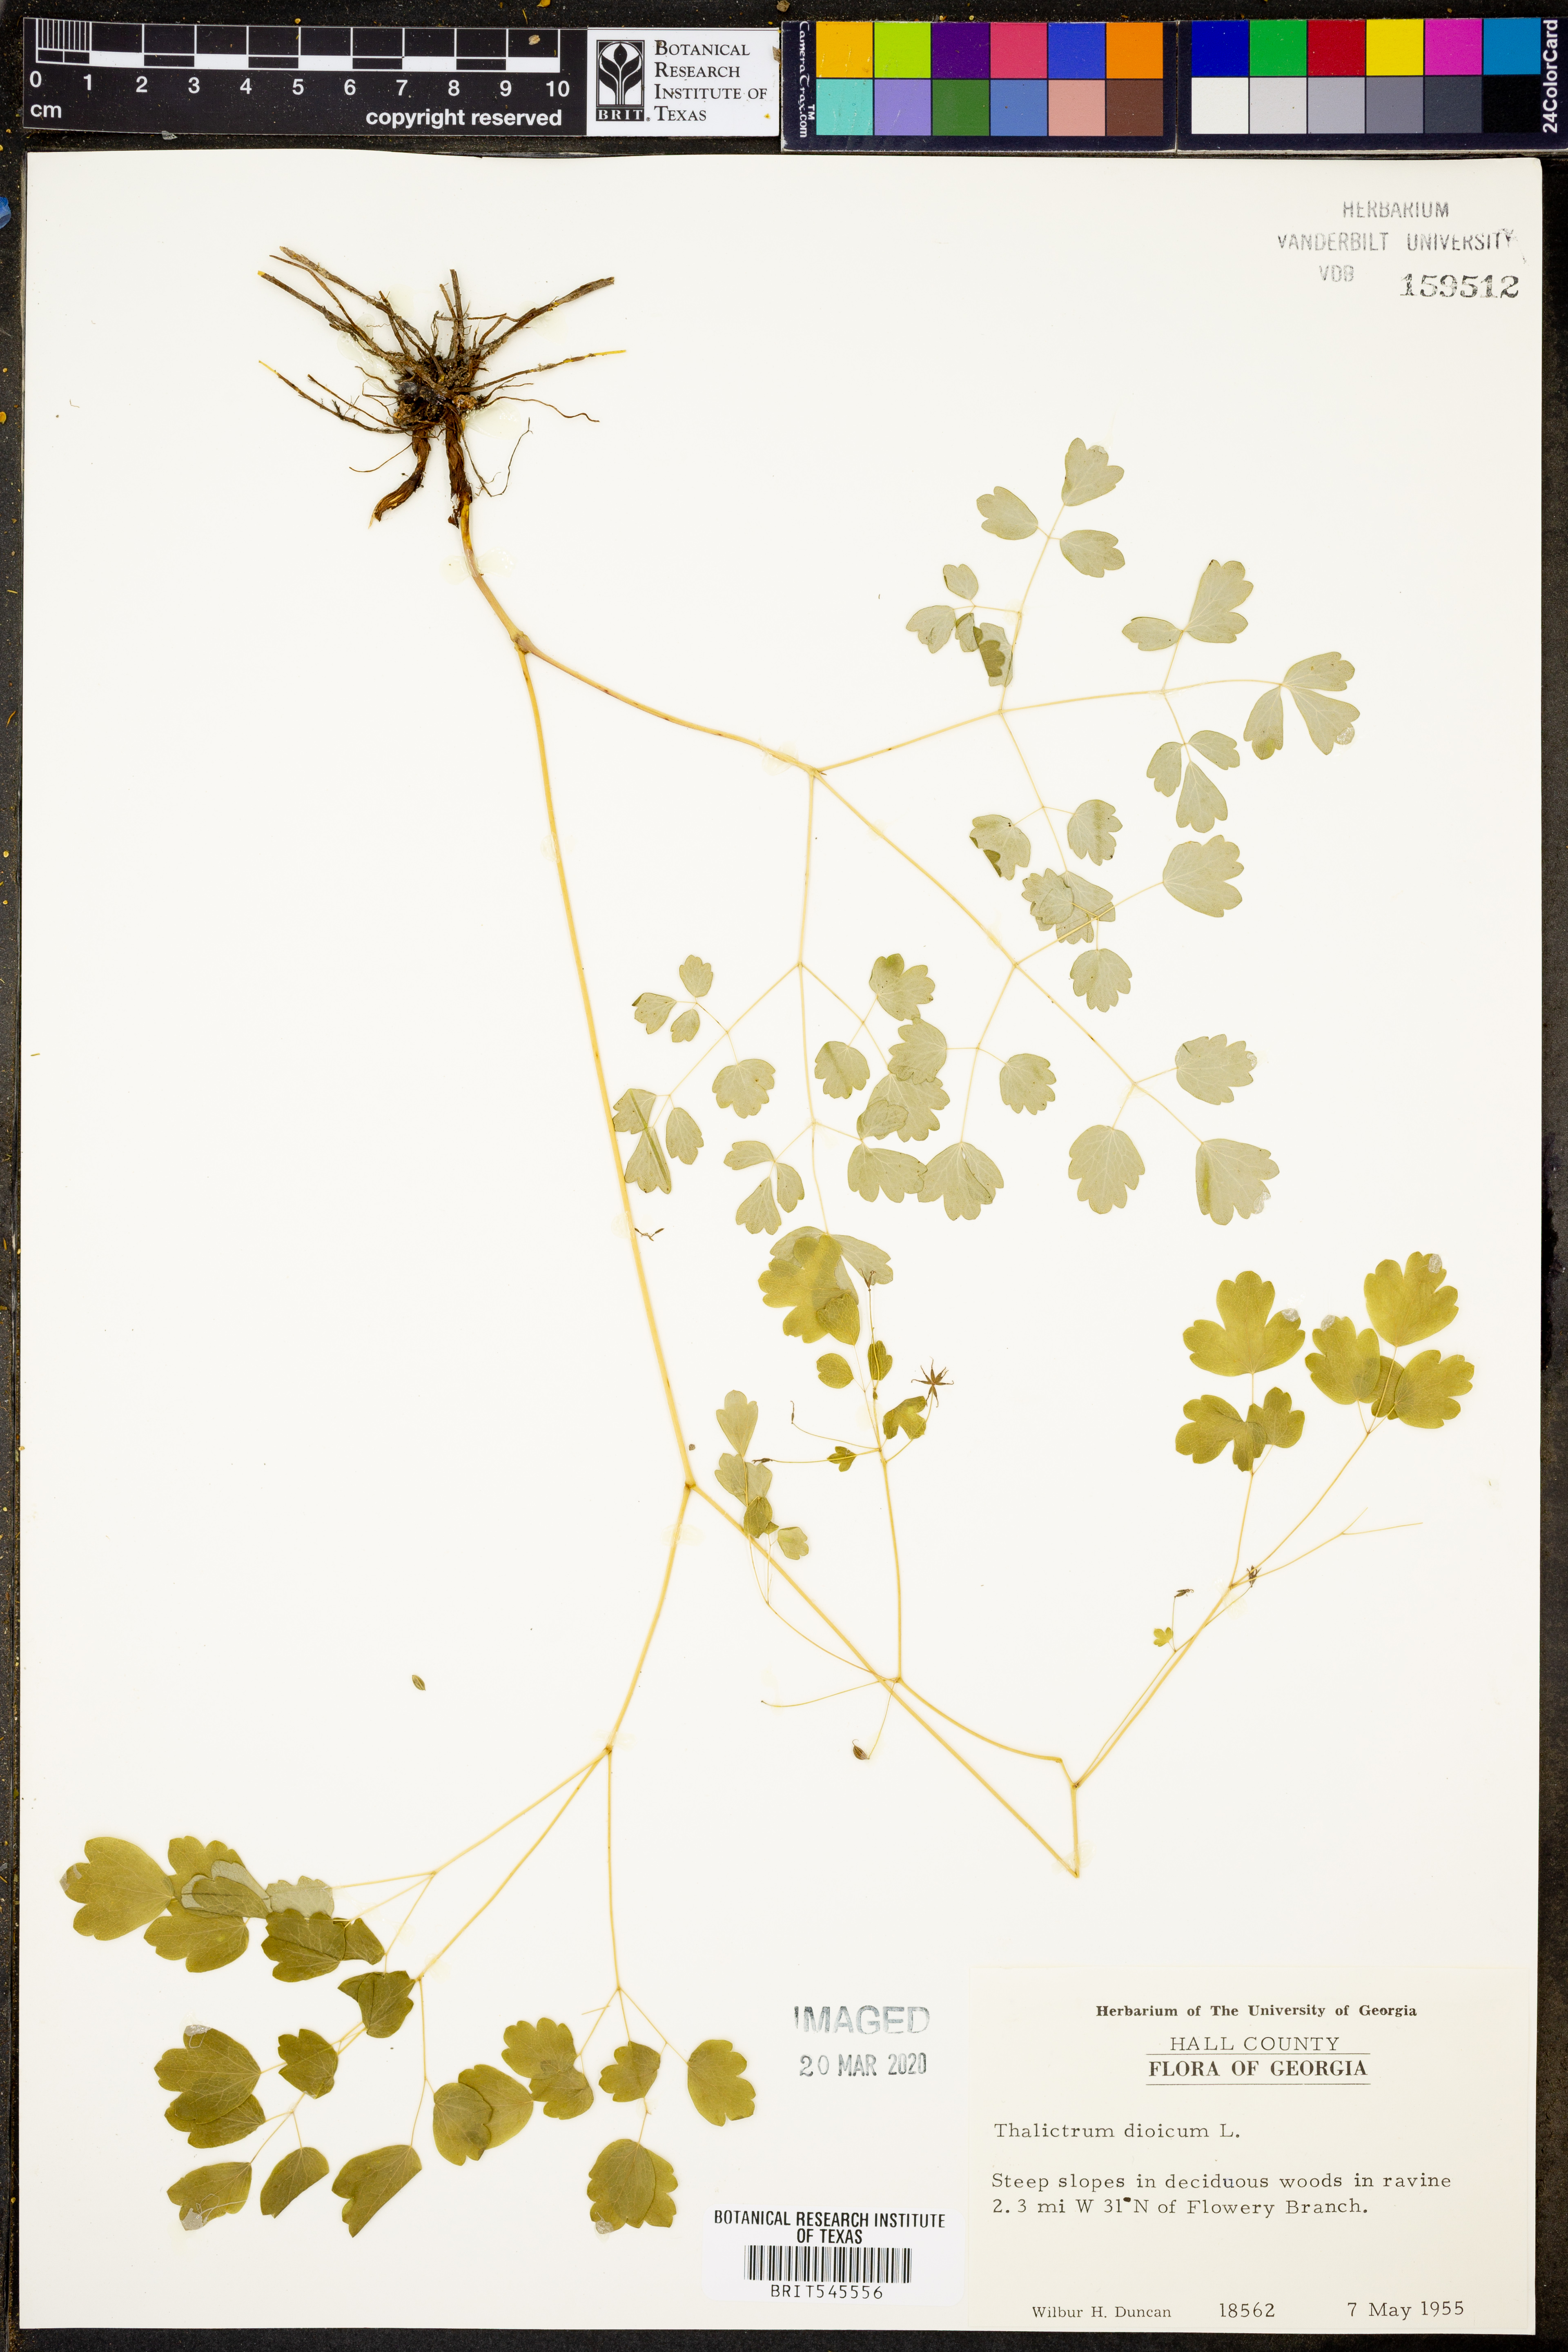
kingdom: Plantae
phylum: Tracheophyta
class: Magnoliopsida
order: Ranunculales
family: Ranunculaceae
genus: Thalictrum
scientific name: Thalictrum dioicum
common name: Early meadow-rue
